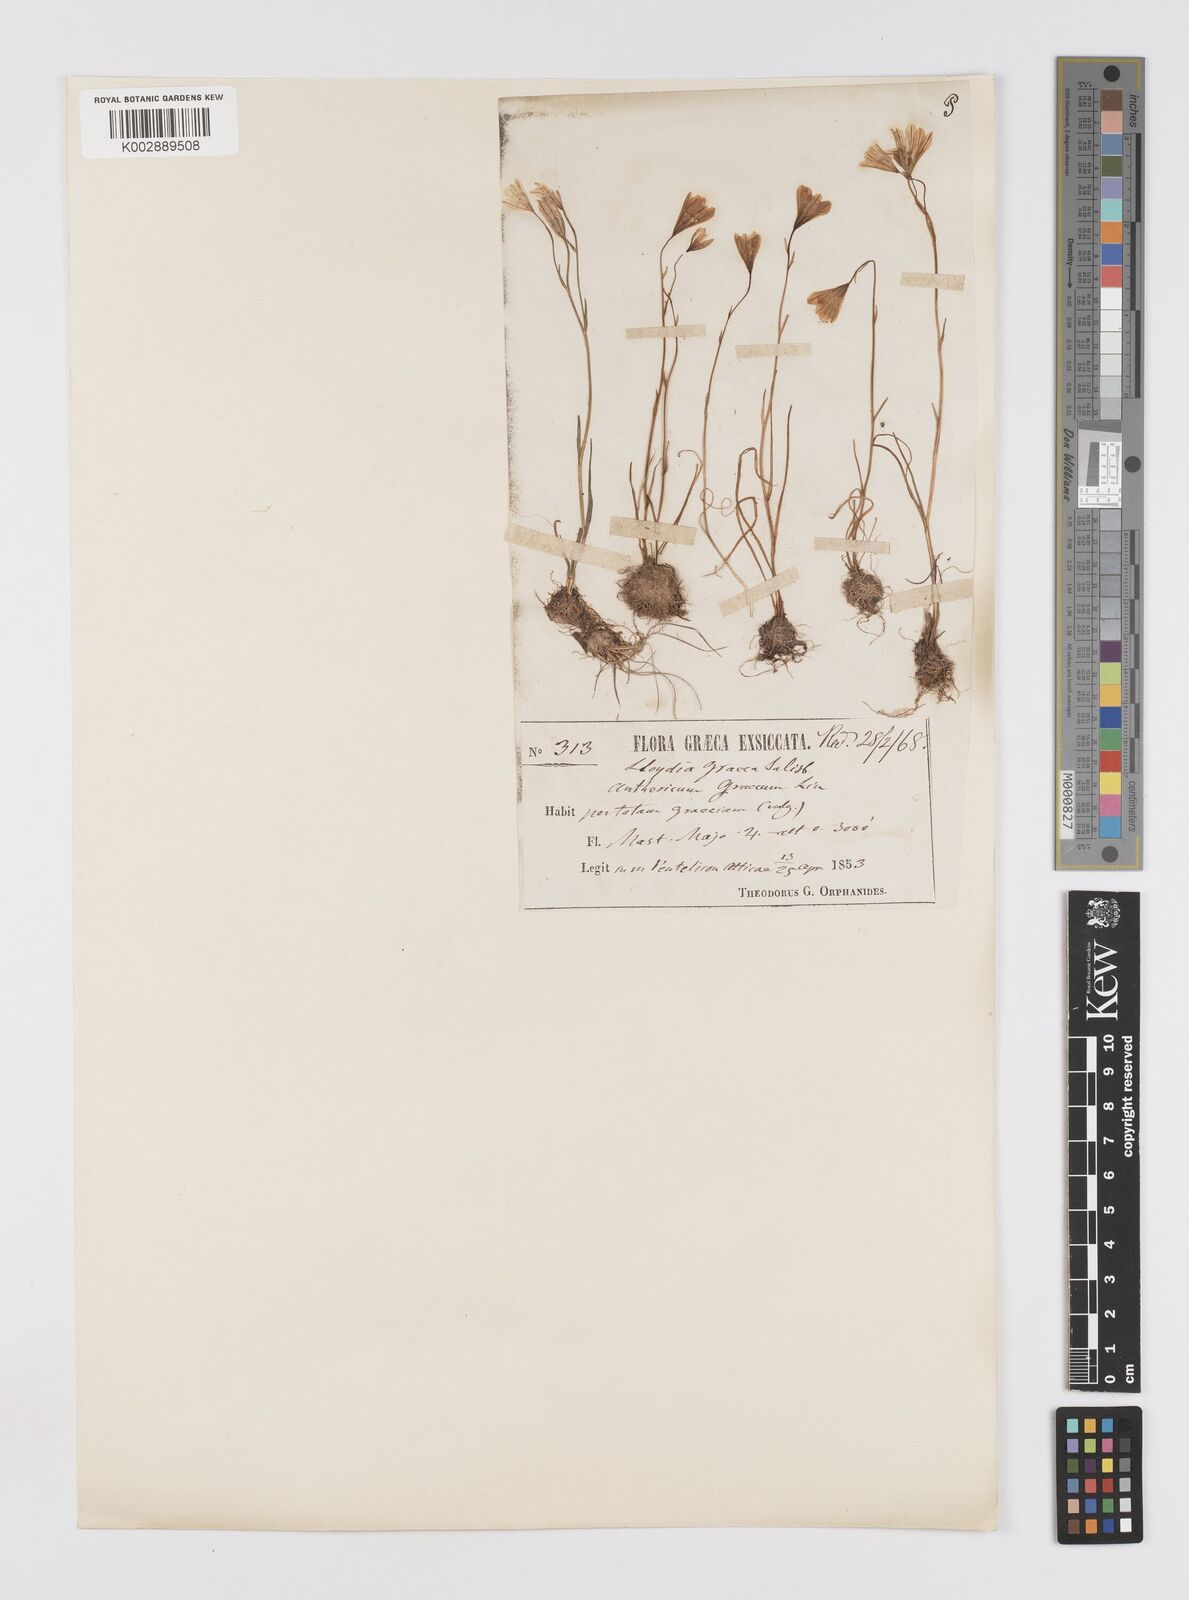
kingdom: Plantae
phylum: Tracheophyta
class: Liliopsida
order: Liliales
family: Liliaceae
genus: Gagea
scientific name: Gagea graeca
